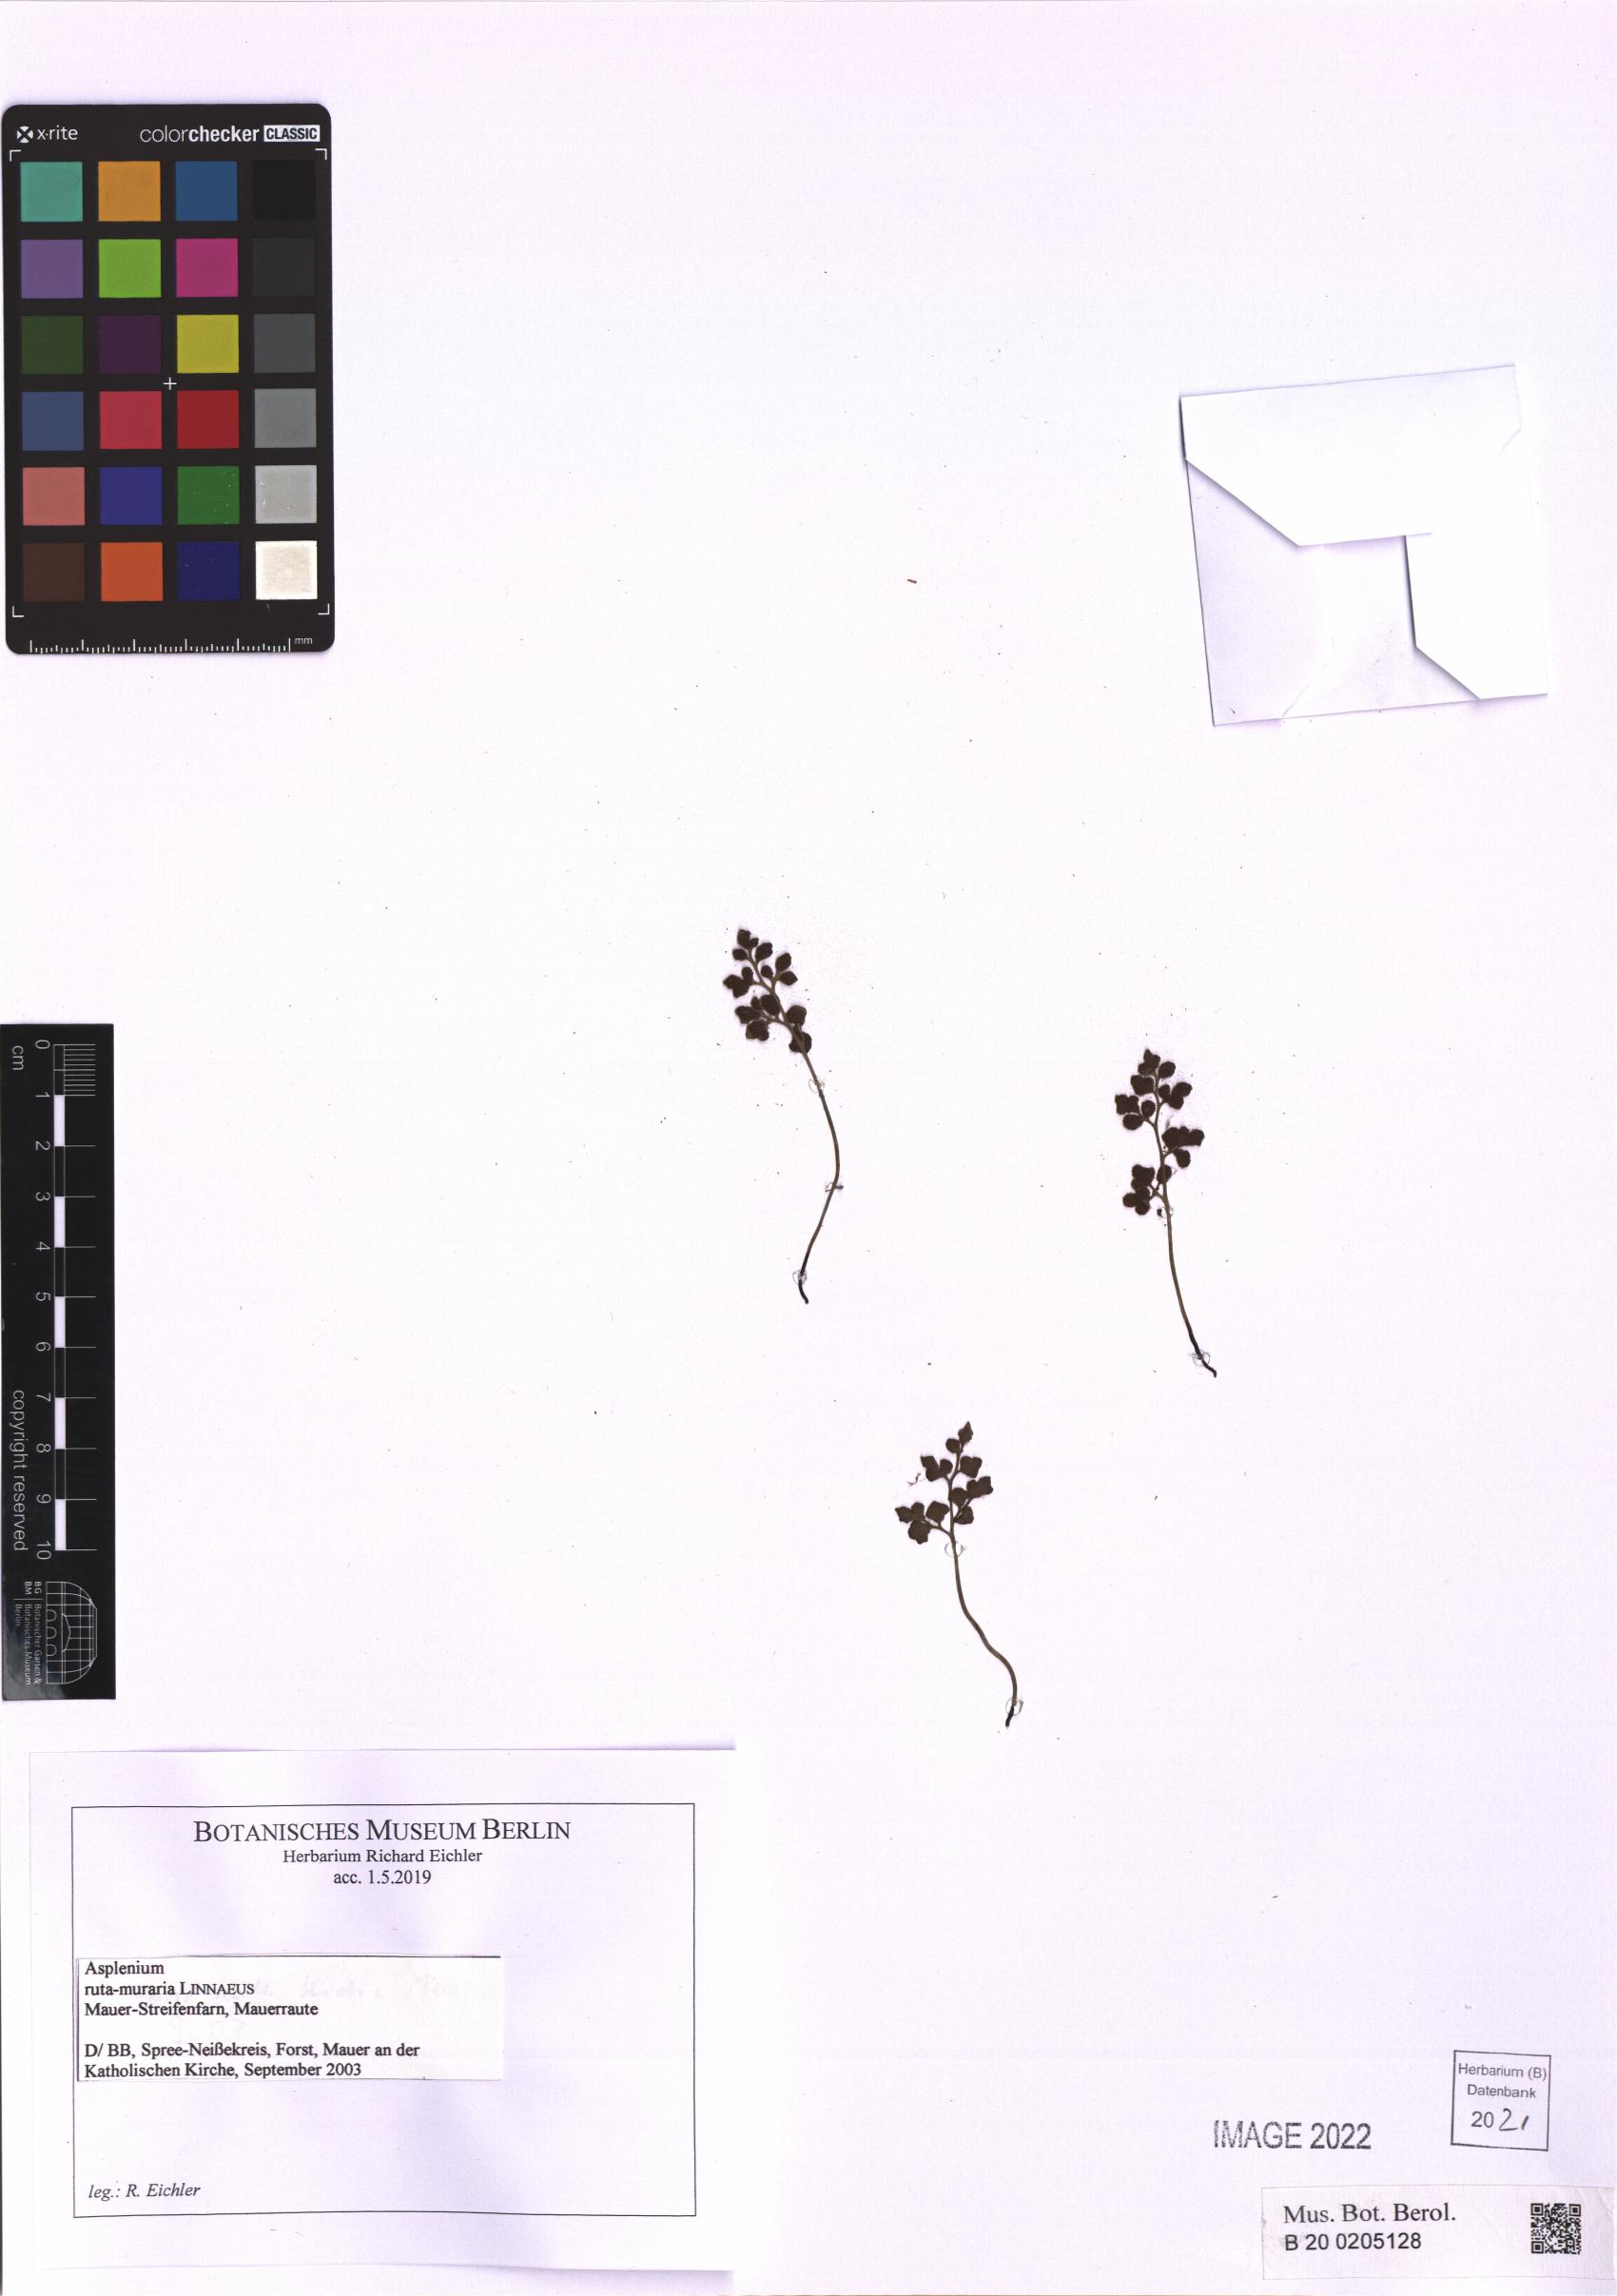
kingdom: Plantae
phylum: Tracheophyta
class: Polypodiopsida
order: Polypodiales
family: Aspleniaceae
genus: Asplenium
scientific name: Asplenium ruta-muraria
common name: Wall-rue
